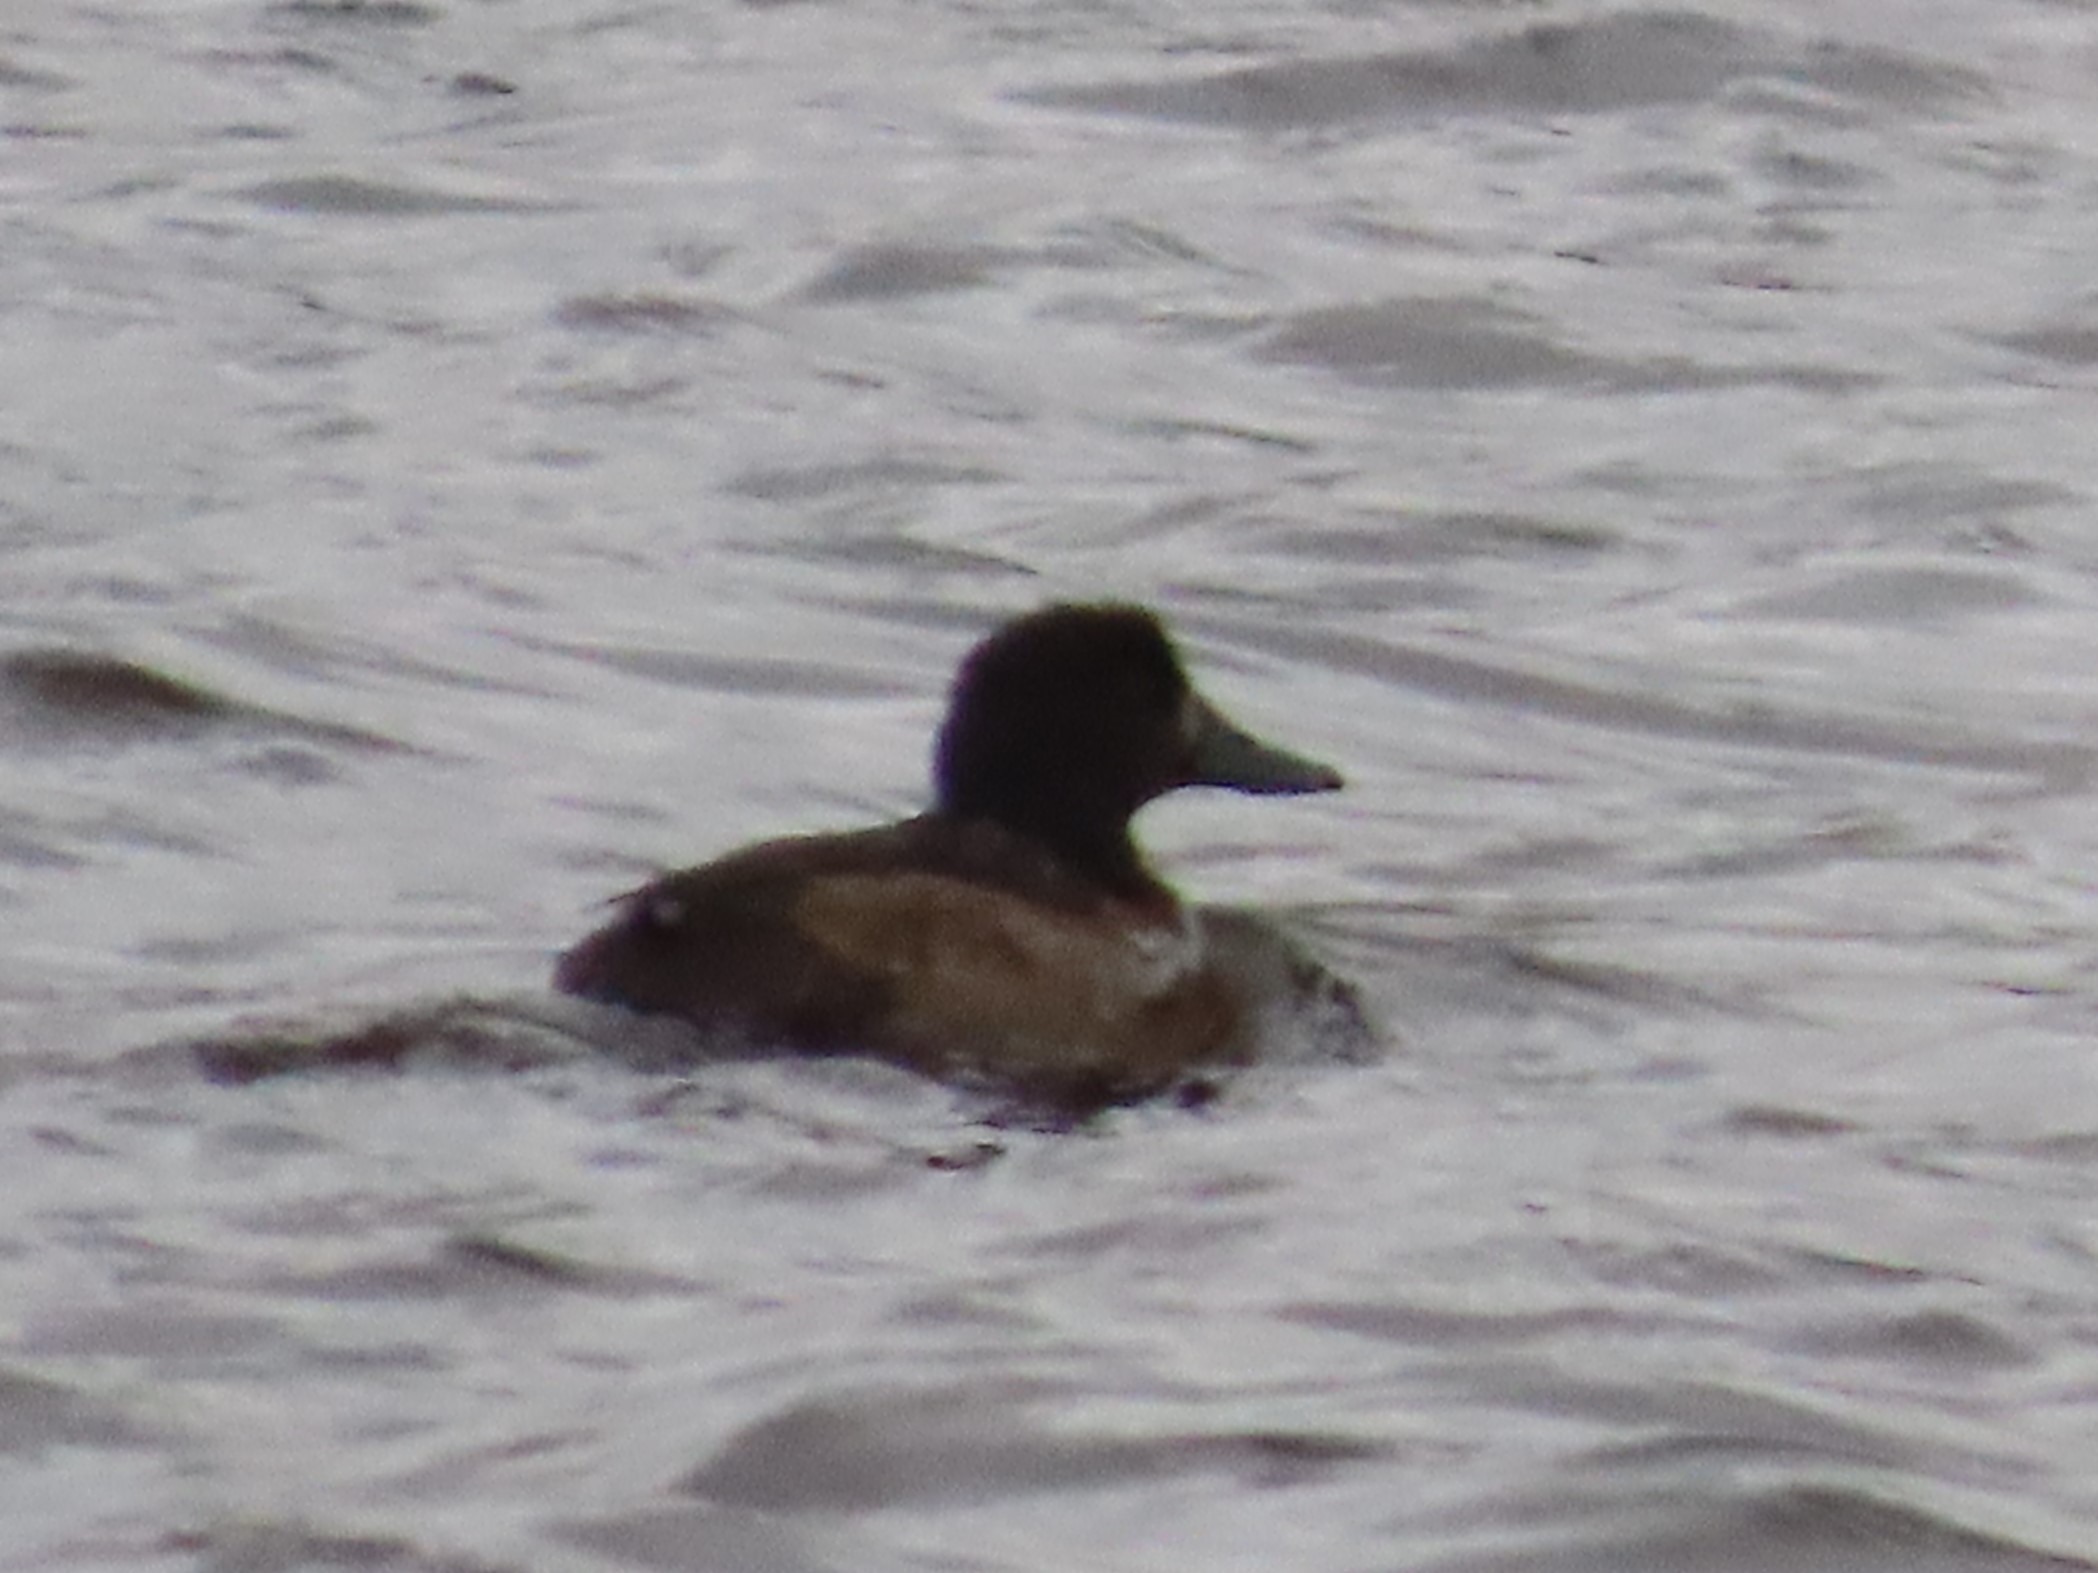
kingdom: Animalia
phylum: Chordata
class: Aves
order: Anseriformes
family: Anatidae
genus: Aythya
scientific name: Aythya fuligula
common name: Troldand
